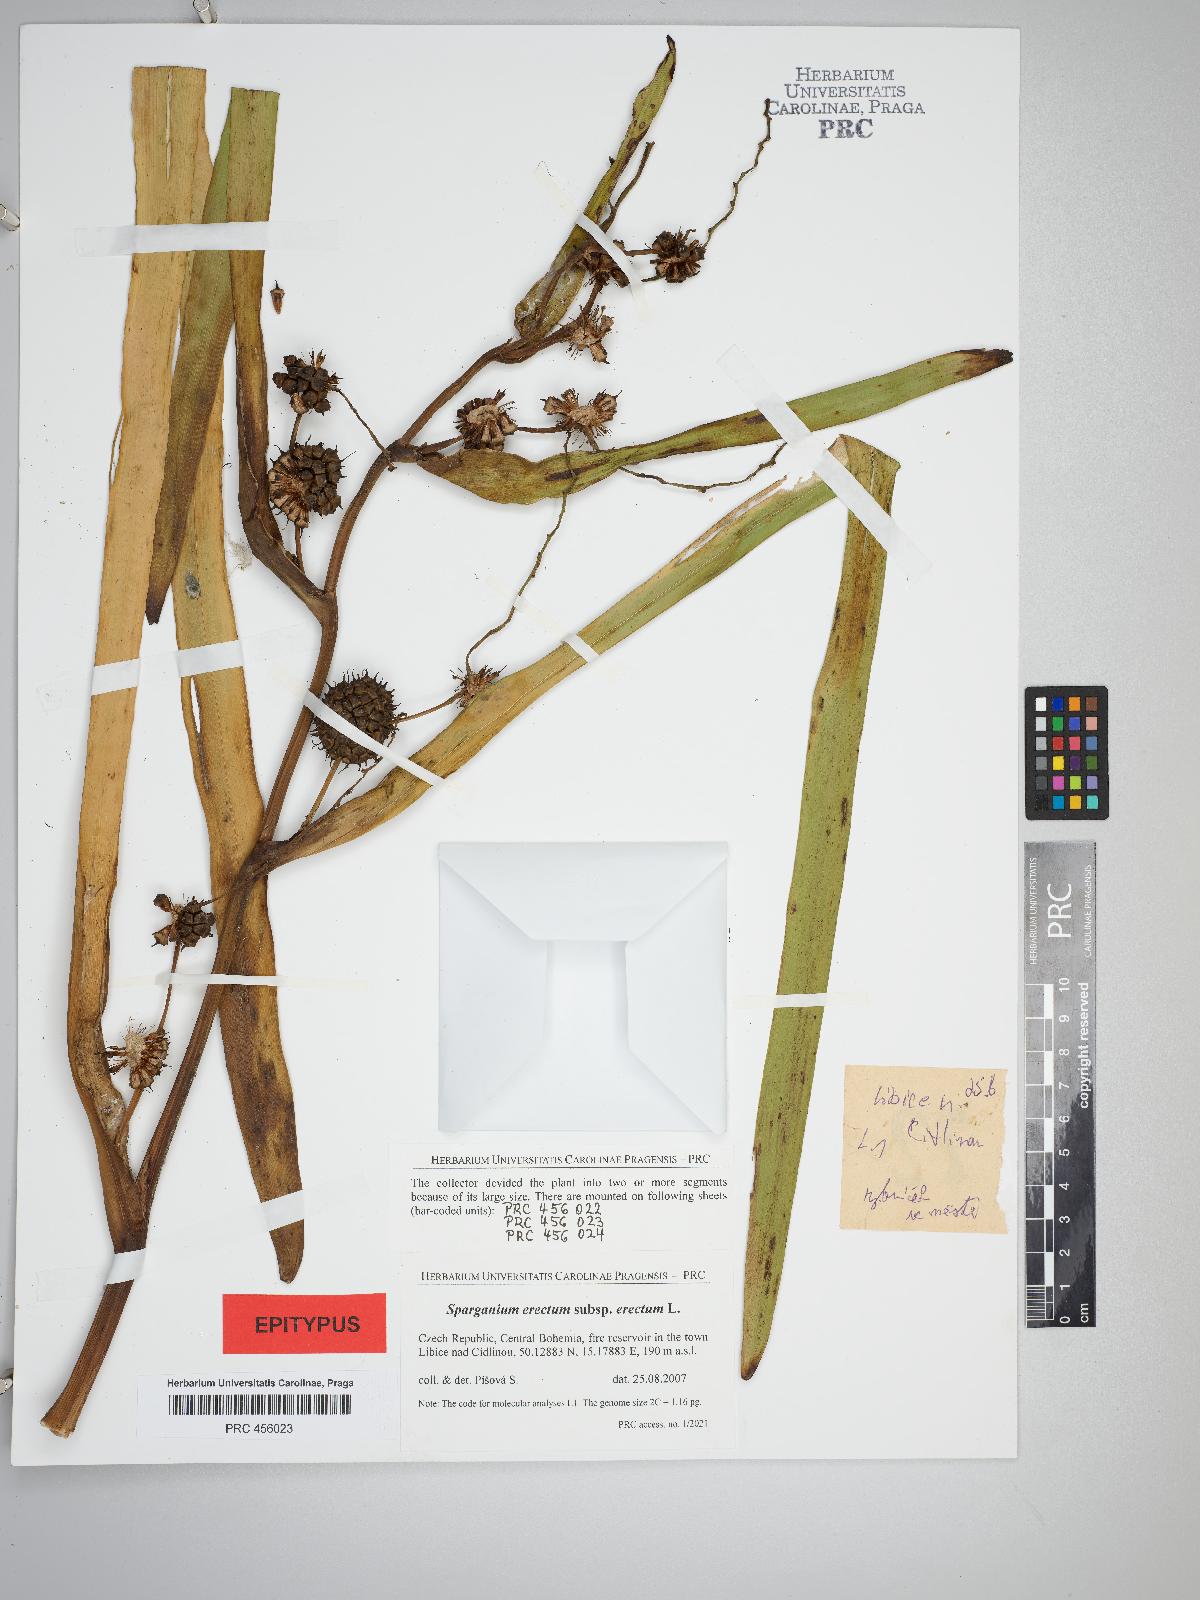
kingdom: Plantae
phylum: Tracheophyta
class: Liliopsida
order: Poales
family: Typhaceae
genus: Sparganium
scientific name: Sparganium erectum
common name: Branched bur-reed
